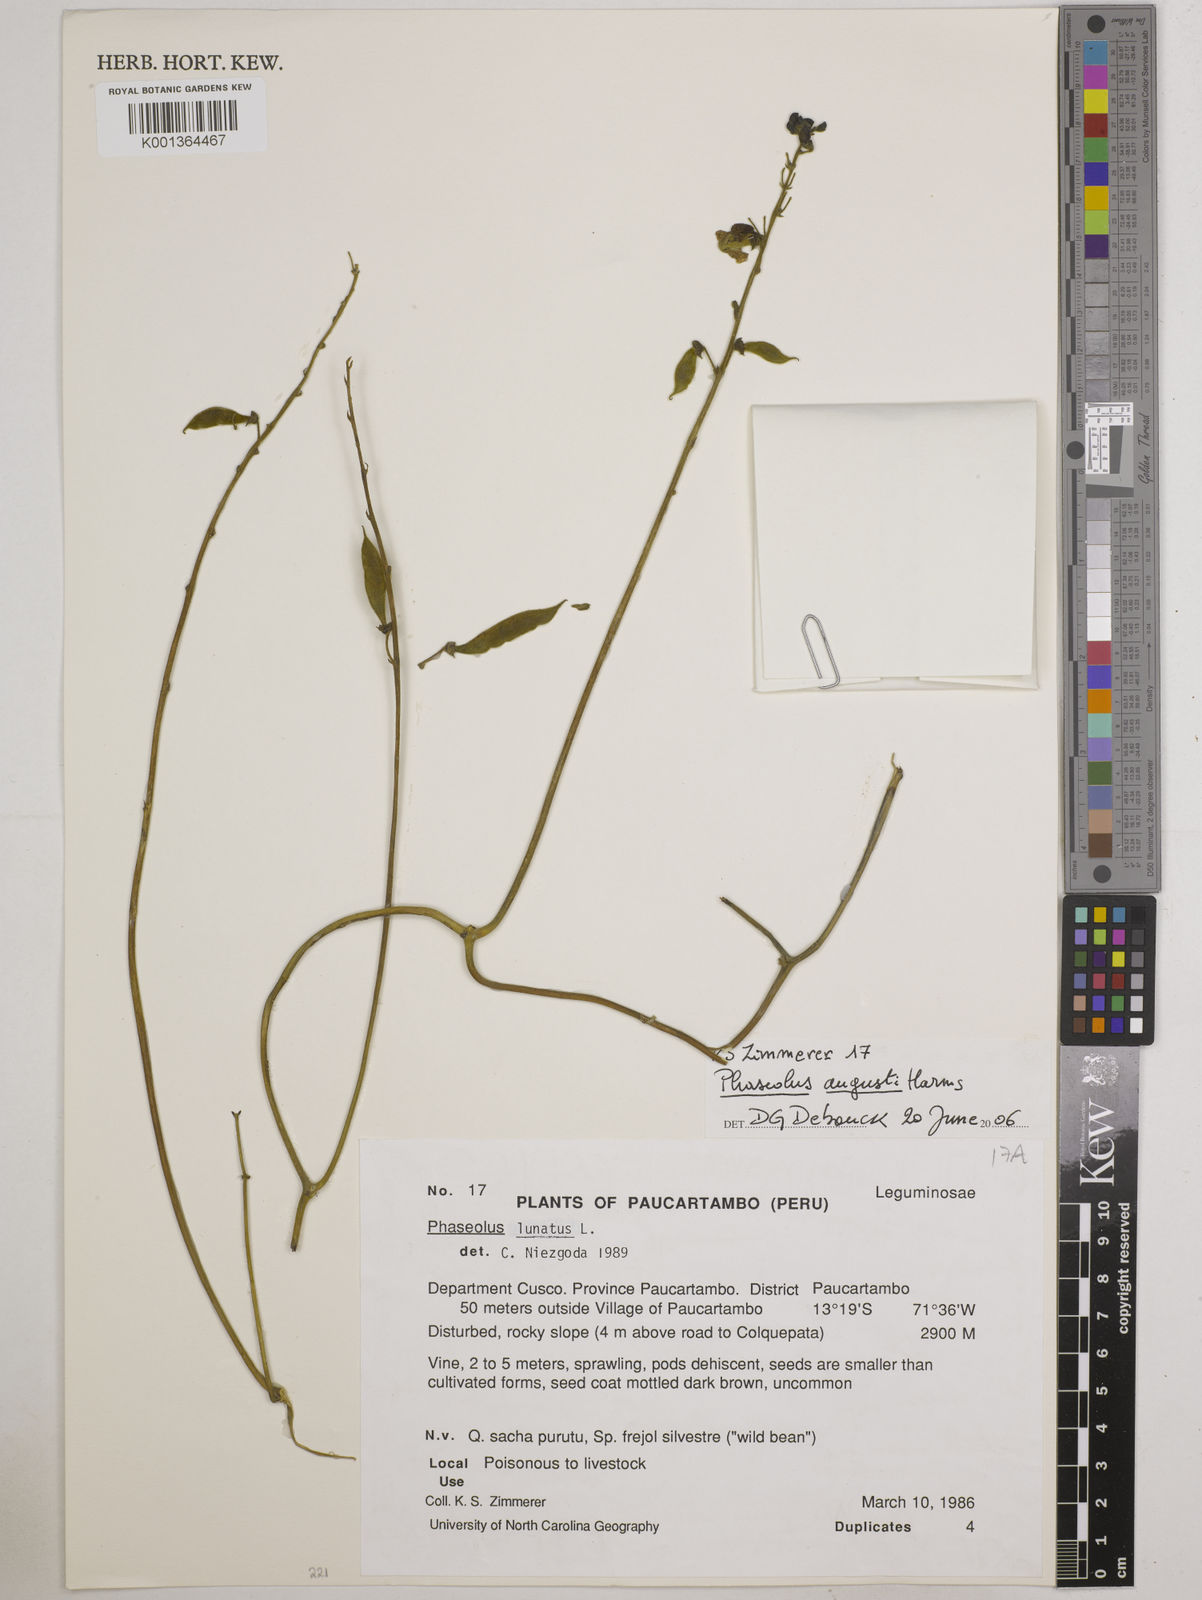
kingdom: Plantae
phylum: Tracheophyta
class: Magnoliopsida
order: Fabales
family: Fabaceae
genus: Phaseolus
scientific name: Phaseolus augusti
